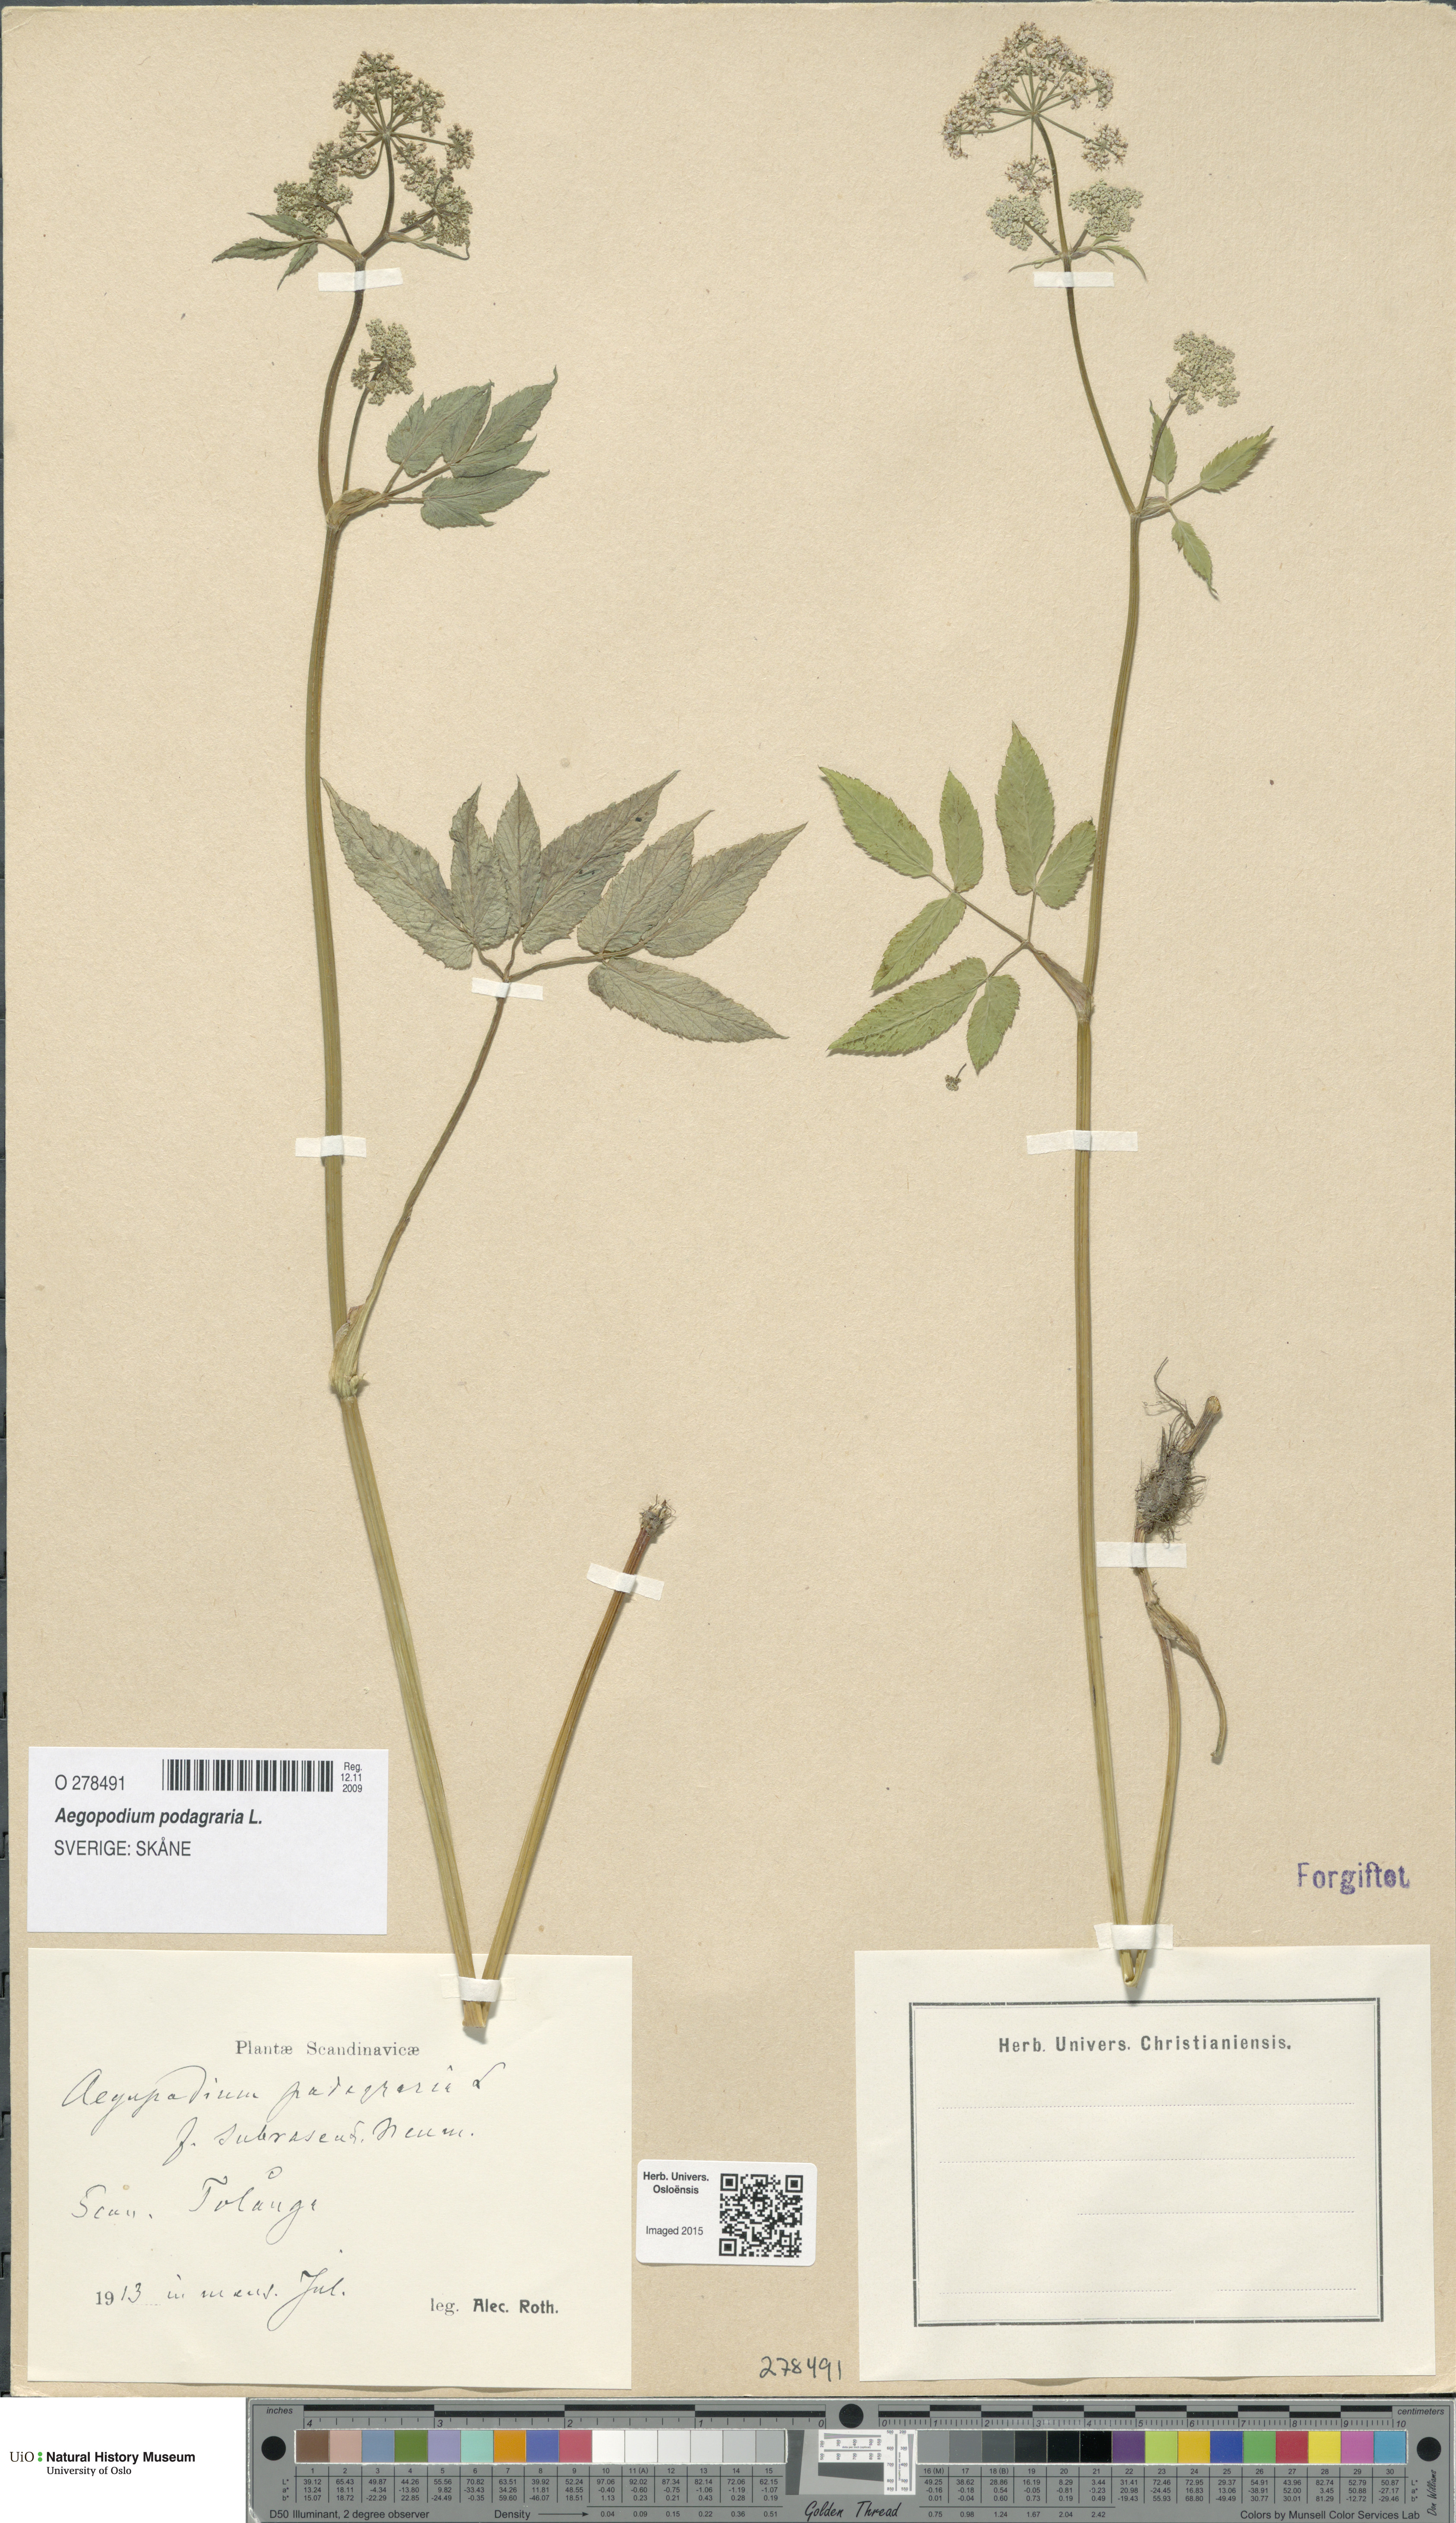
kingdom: Plantae
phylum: Tracheophyta
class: Magnoliopsida
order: Apiales
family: Apiaceae
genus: Aegopodium
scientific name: Aegopodium podagraria
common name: Ground-elder
